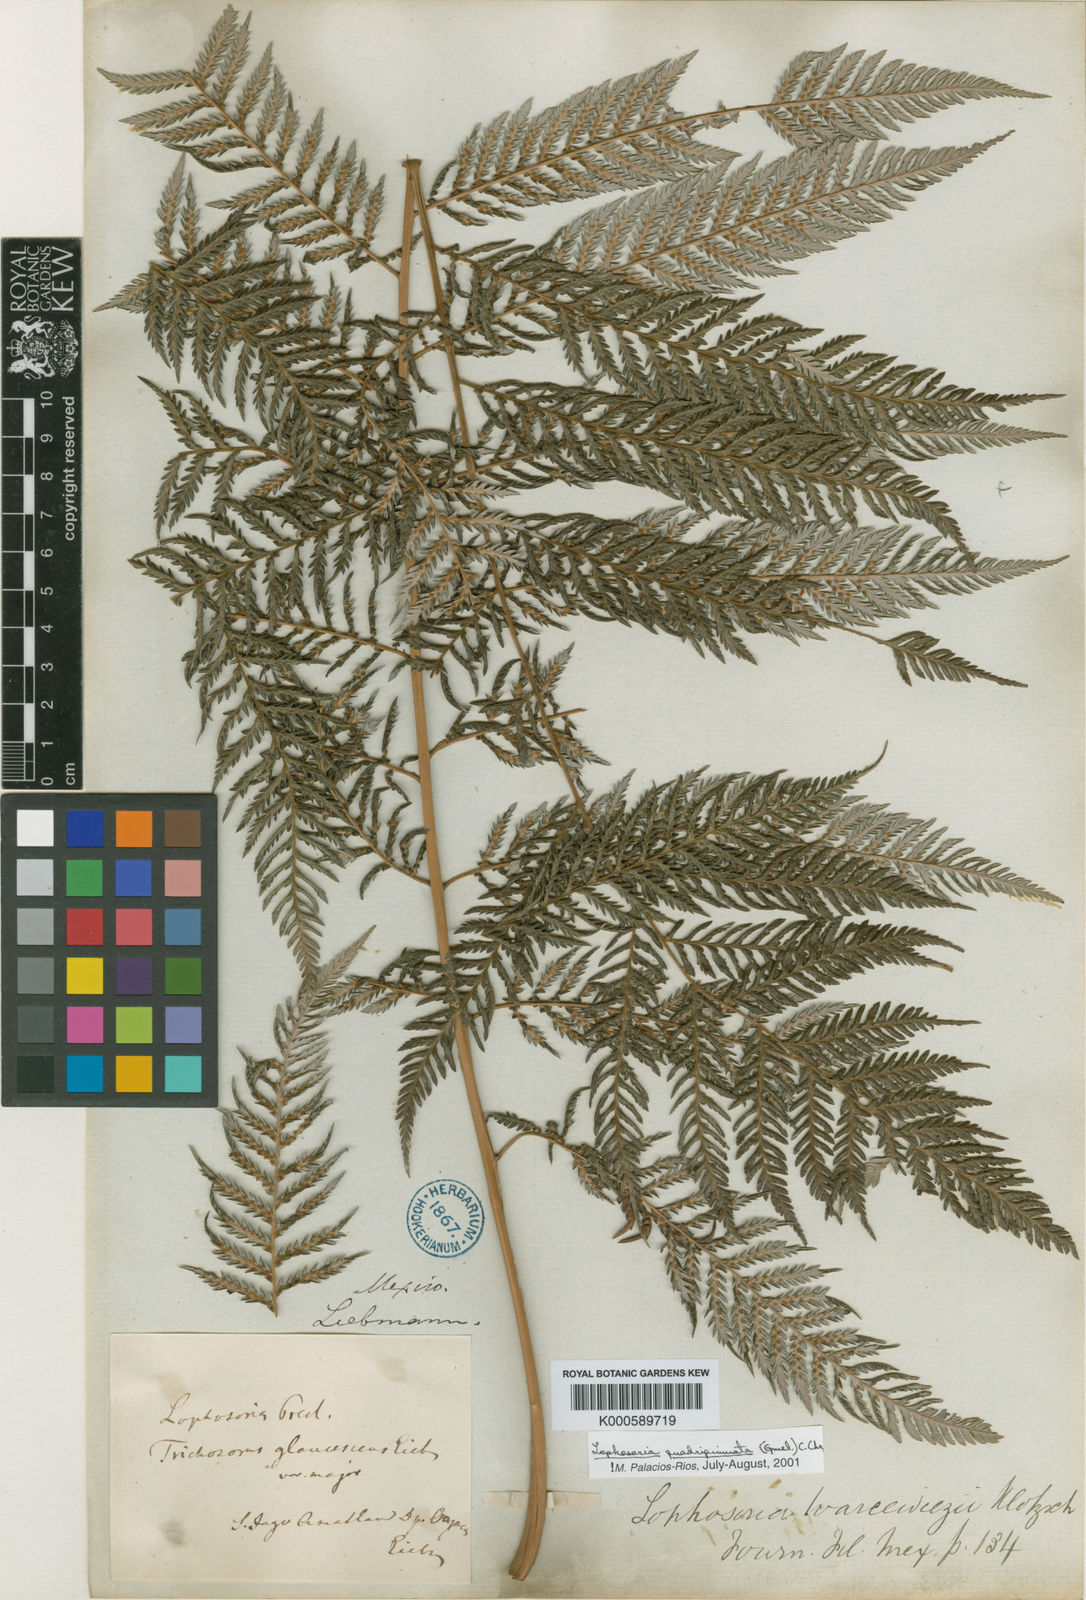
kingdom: Plantae
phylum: Tracheophyta
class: Polypodiopsida
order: Cyatheales
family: Dicksoniaceae
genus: Lophosoria
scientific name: Lophosoria quadripinnata
